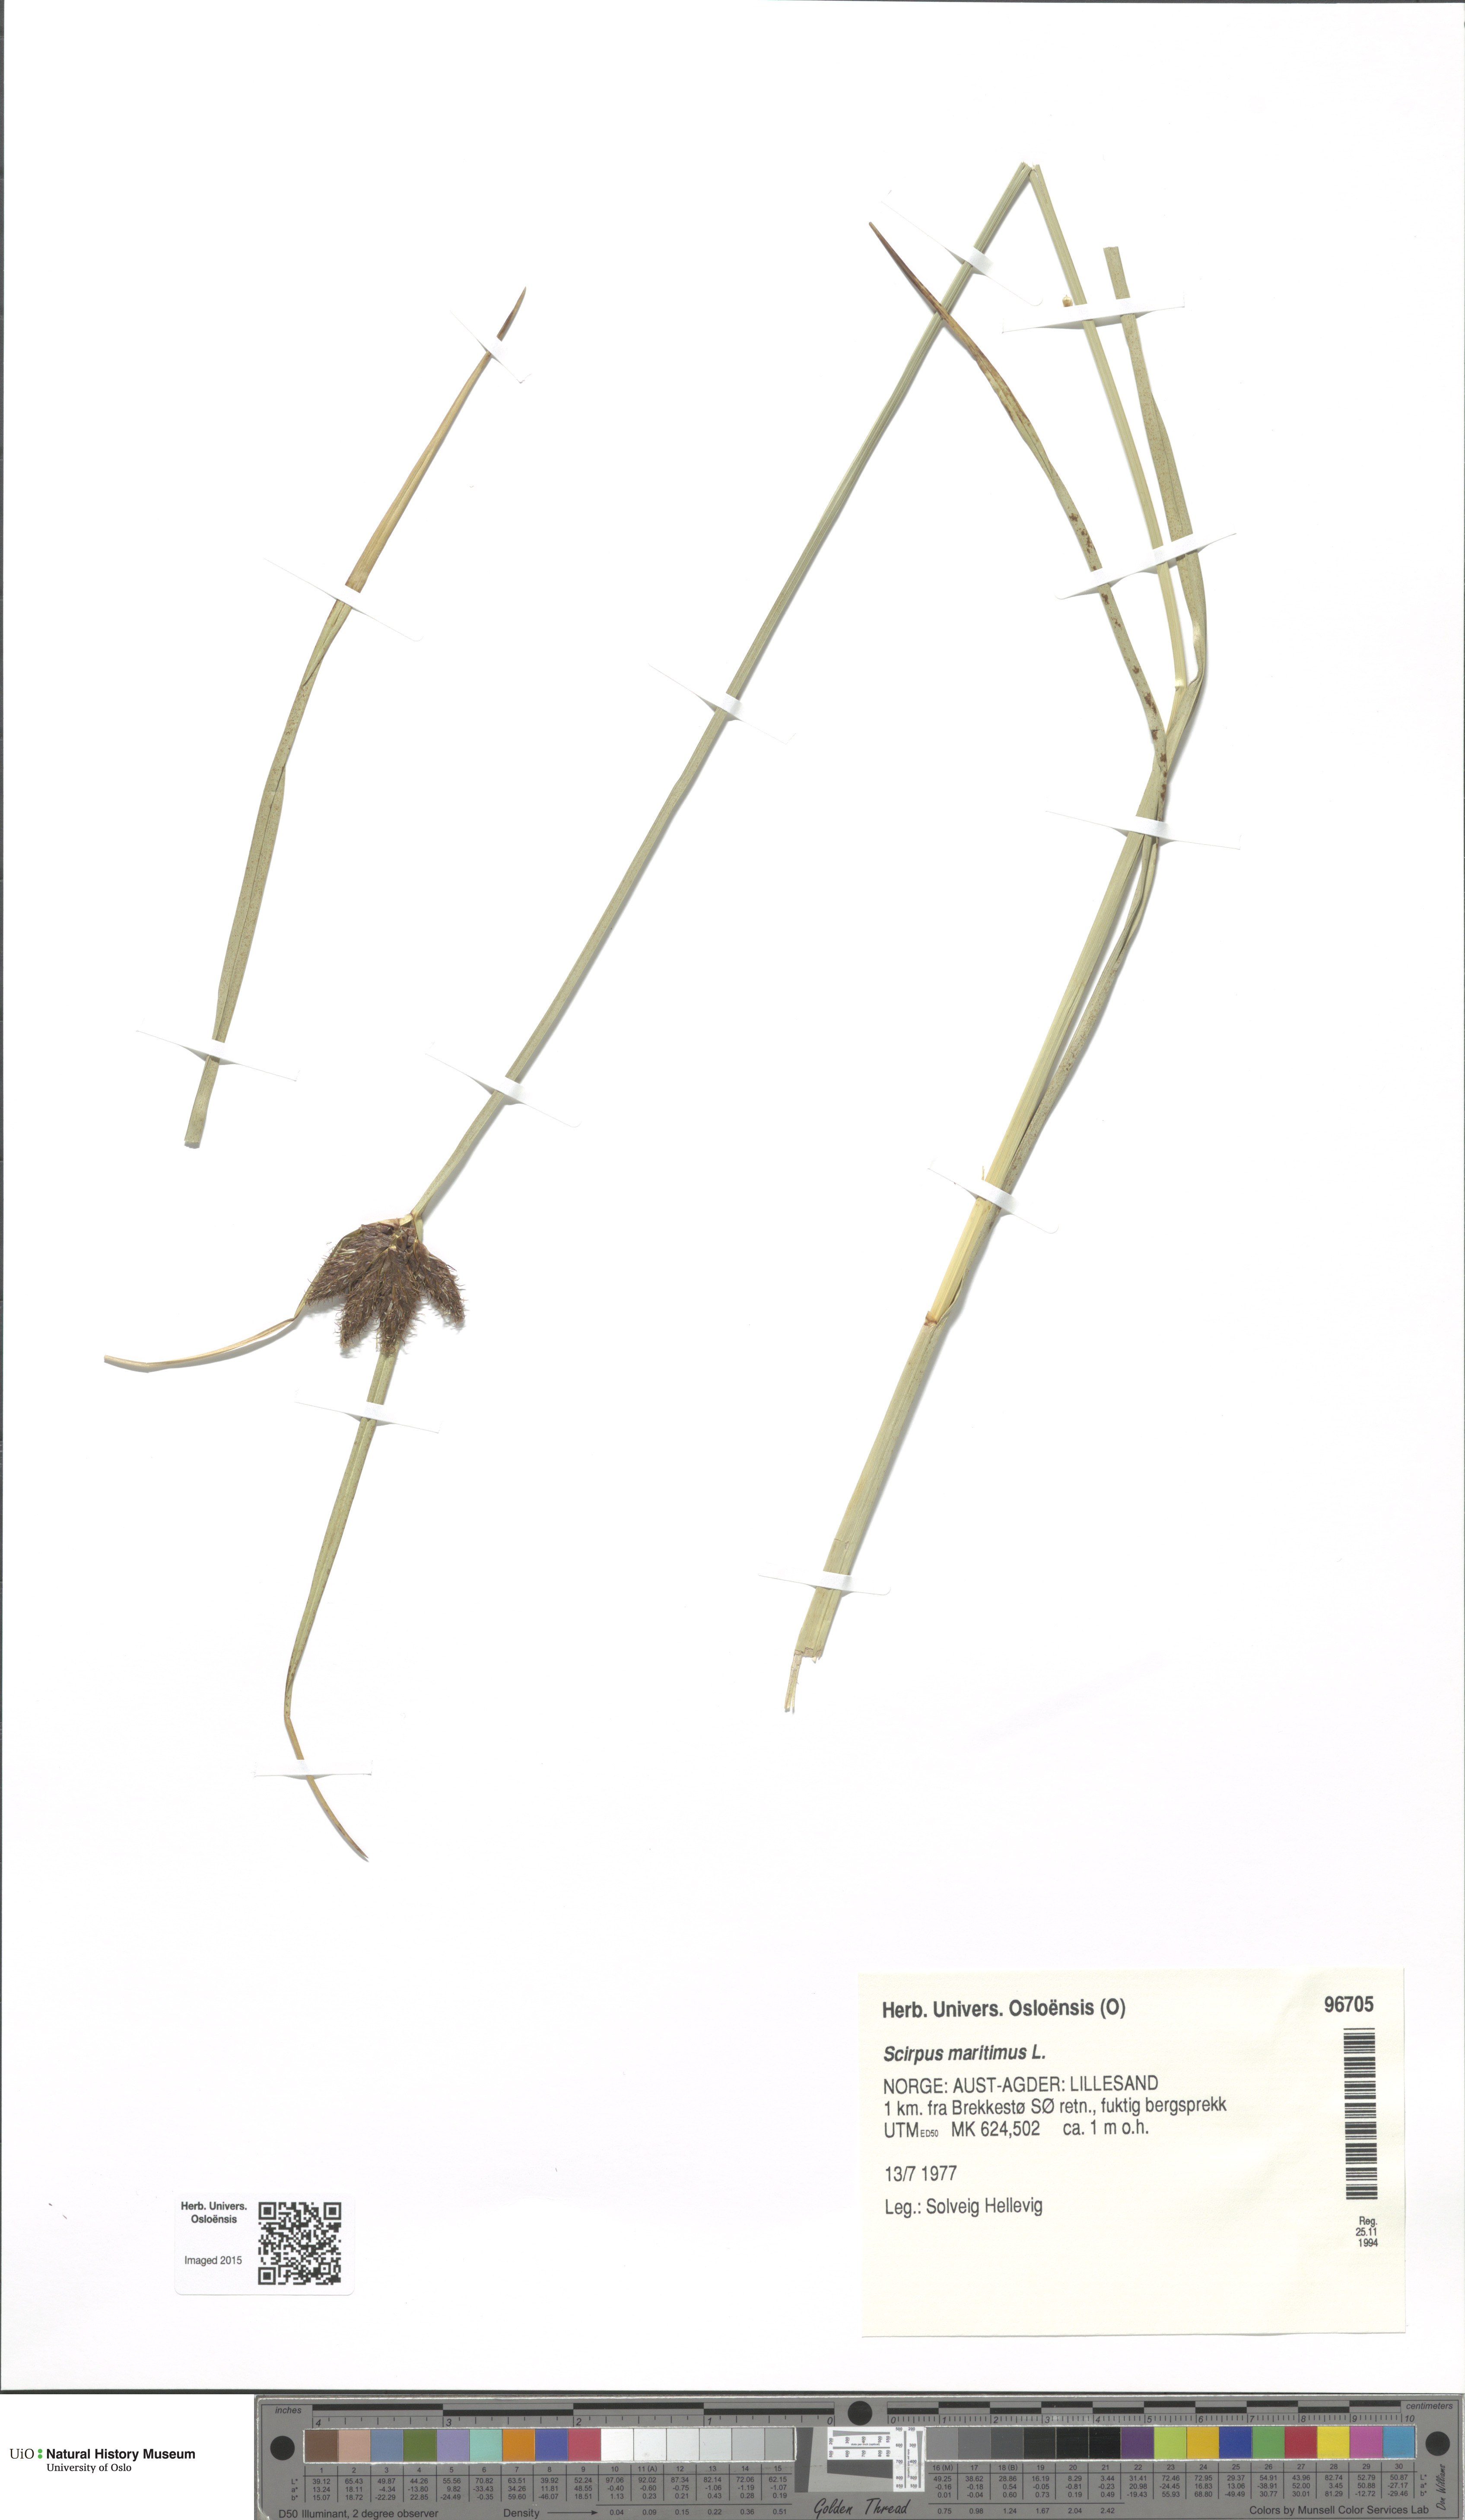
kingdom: Plantae
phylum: Tracheophyta
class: Liliopsida
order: Poales
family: Cyperaceae
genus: Bolboschoenus
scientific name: Bolboschoenus maritimus
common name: Sea club-rush
